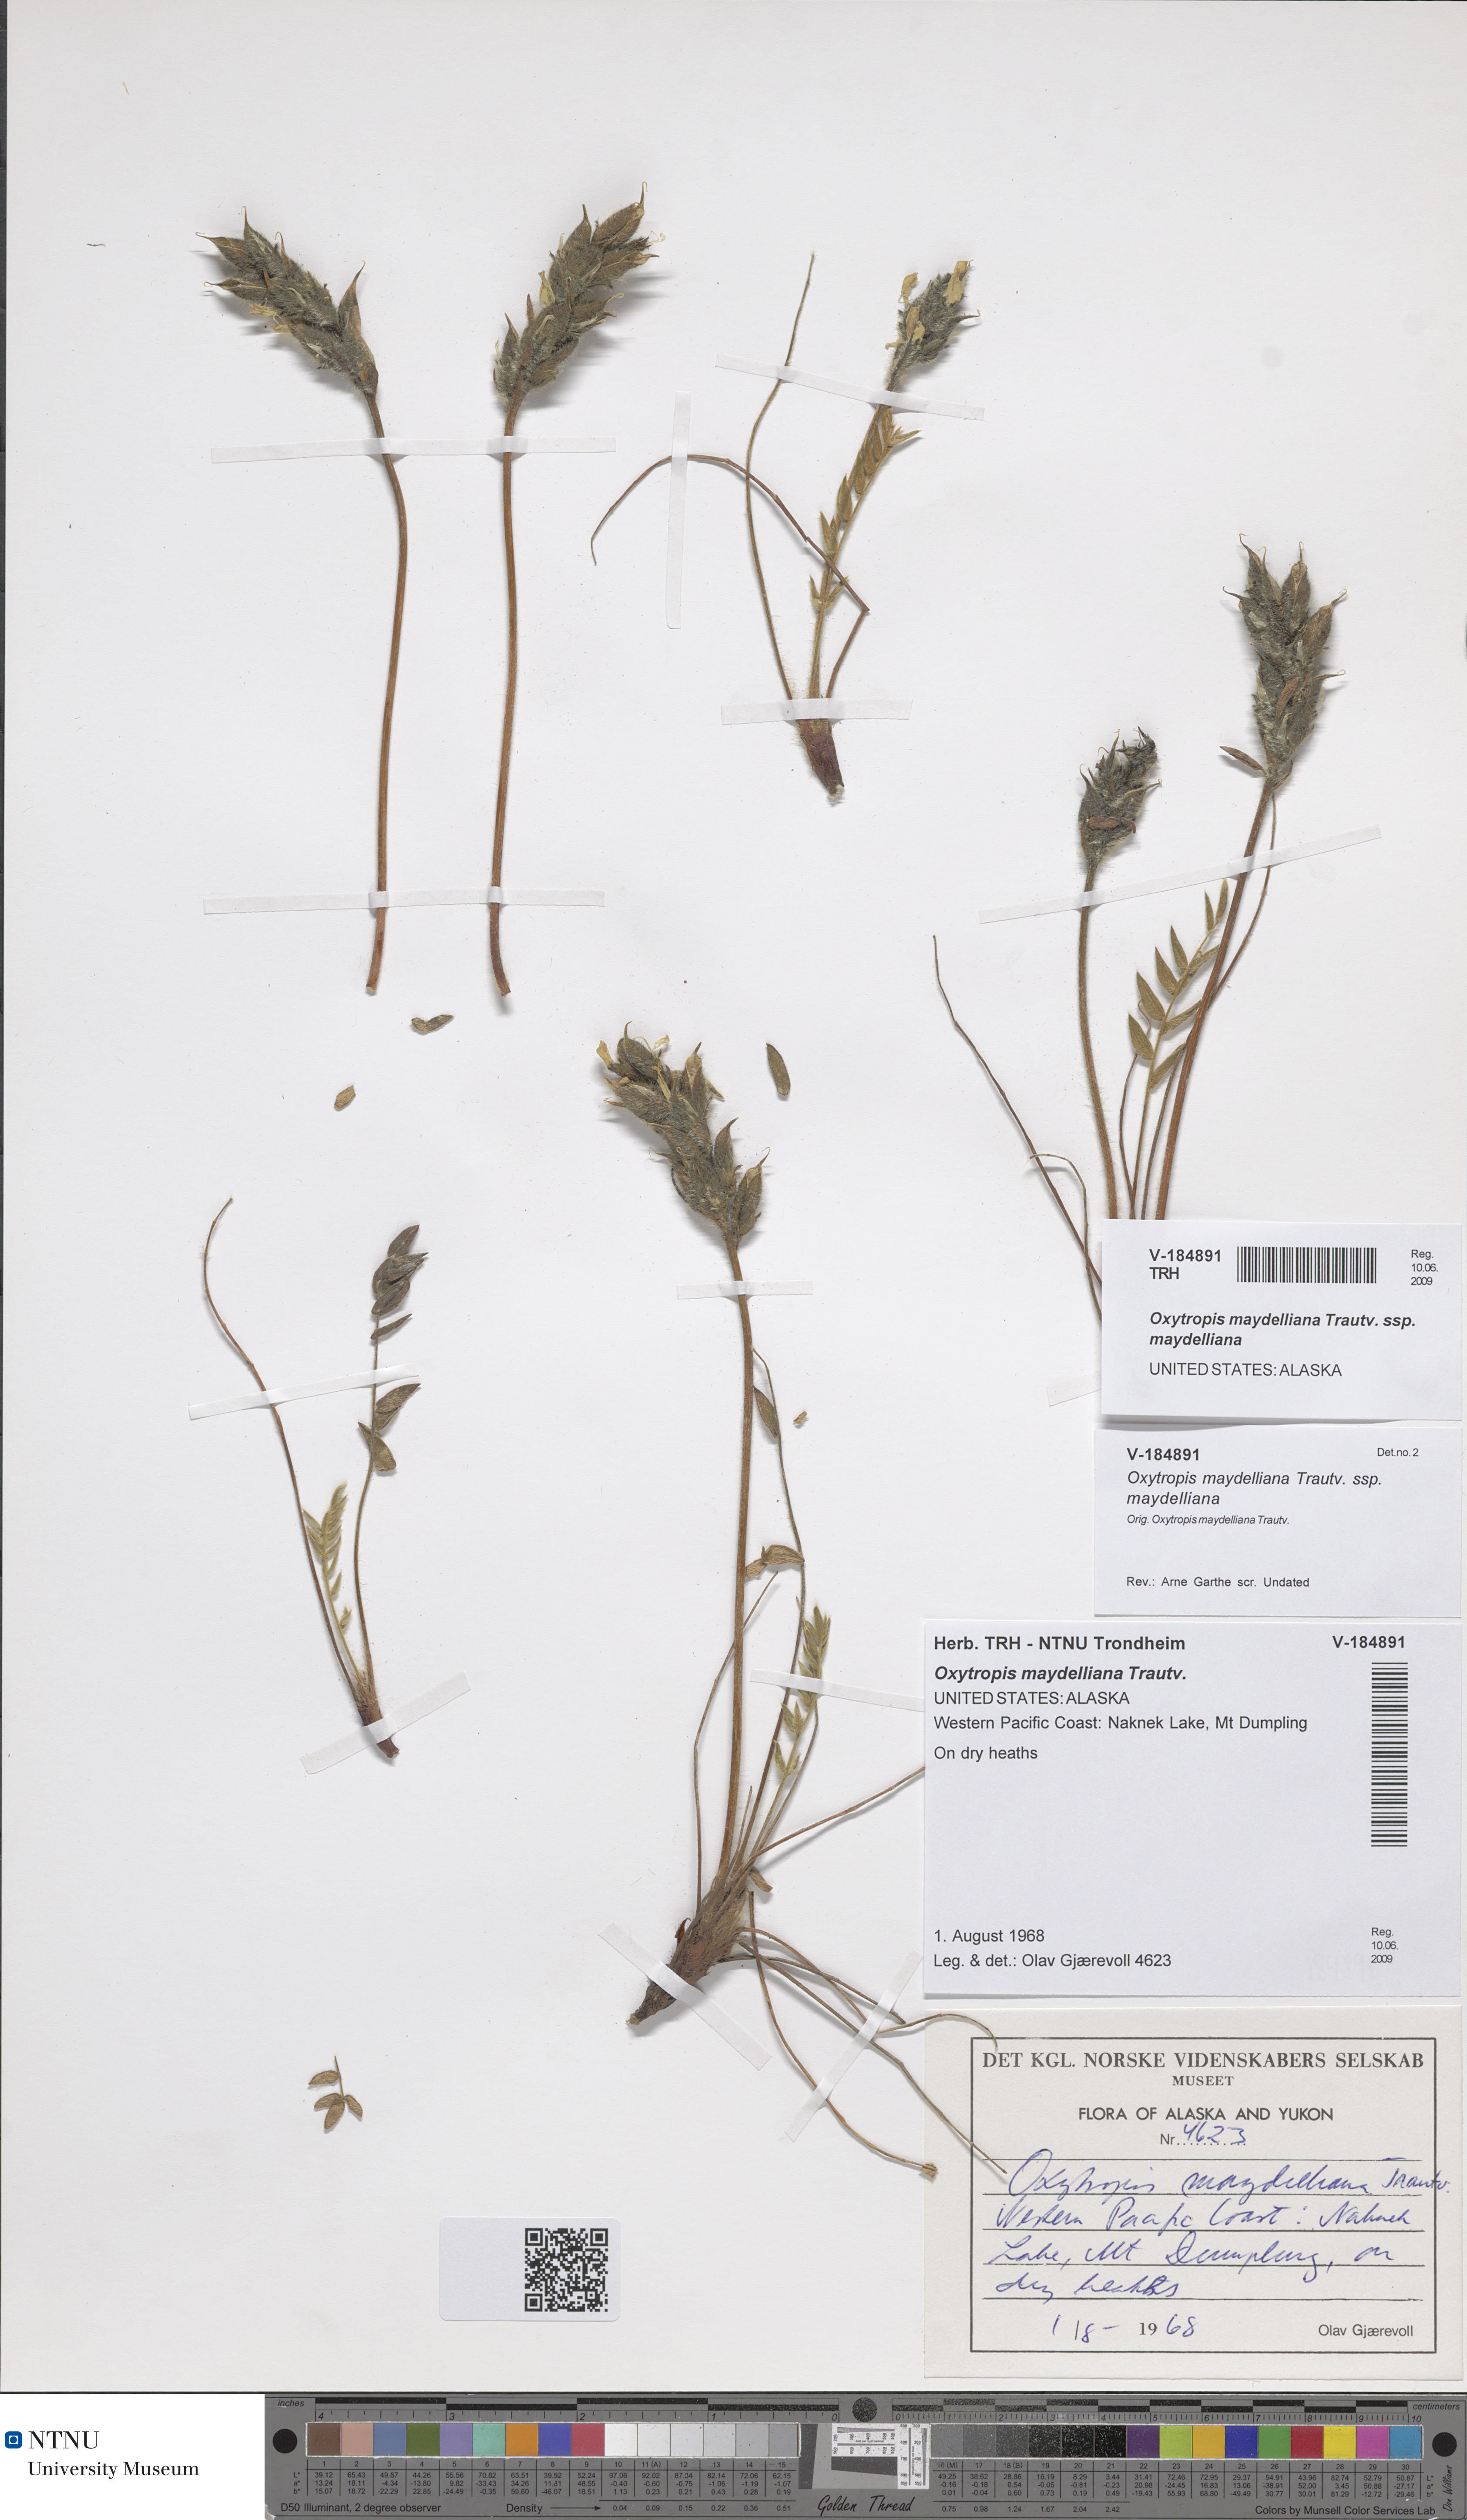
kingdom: Plantae
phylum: Tracheophyta
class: Magnoliopsida
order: Fabales
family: Fabaceae
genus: Oxytropis
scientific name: Oxytropis maydelliana
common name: Maydell's locoweed
